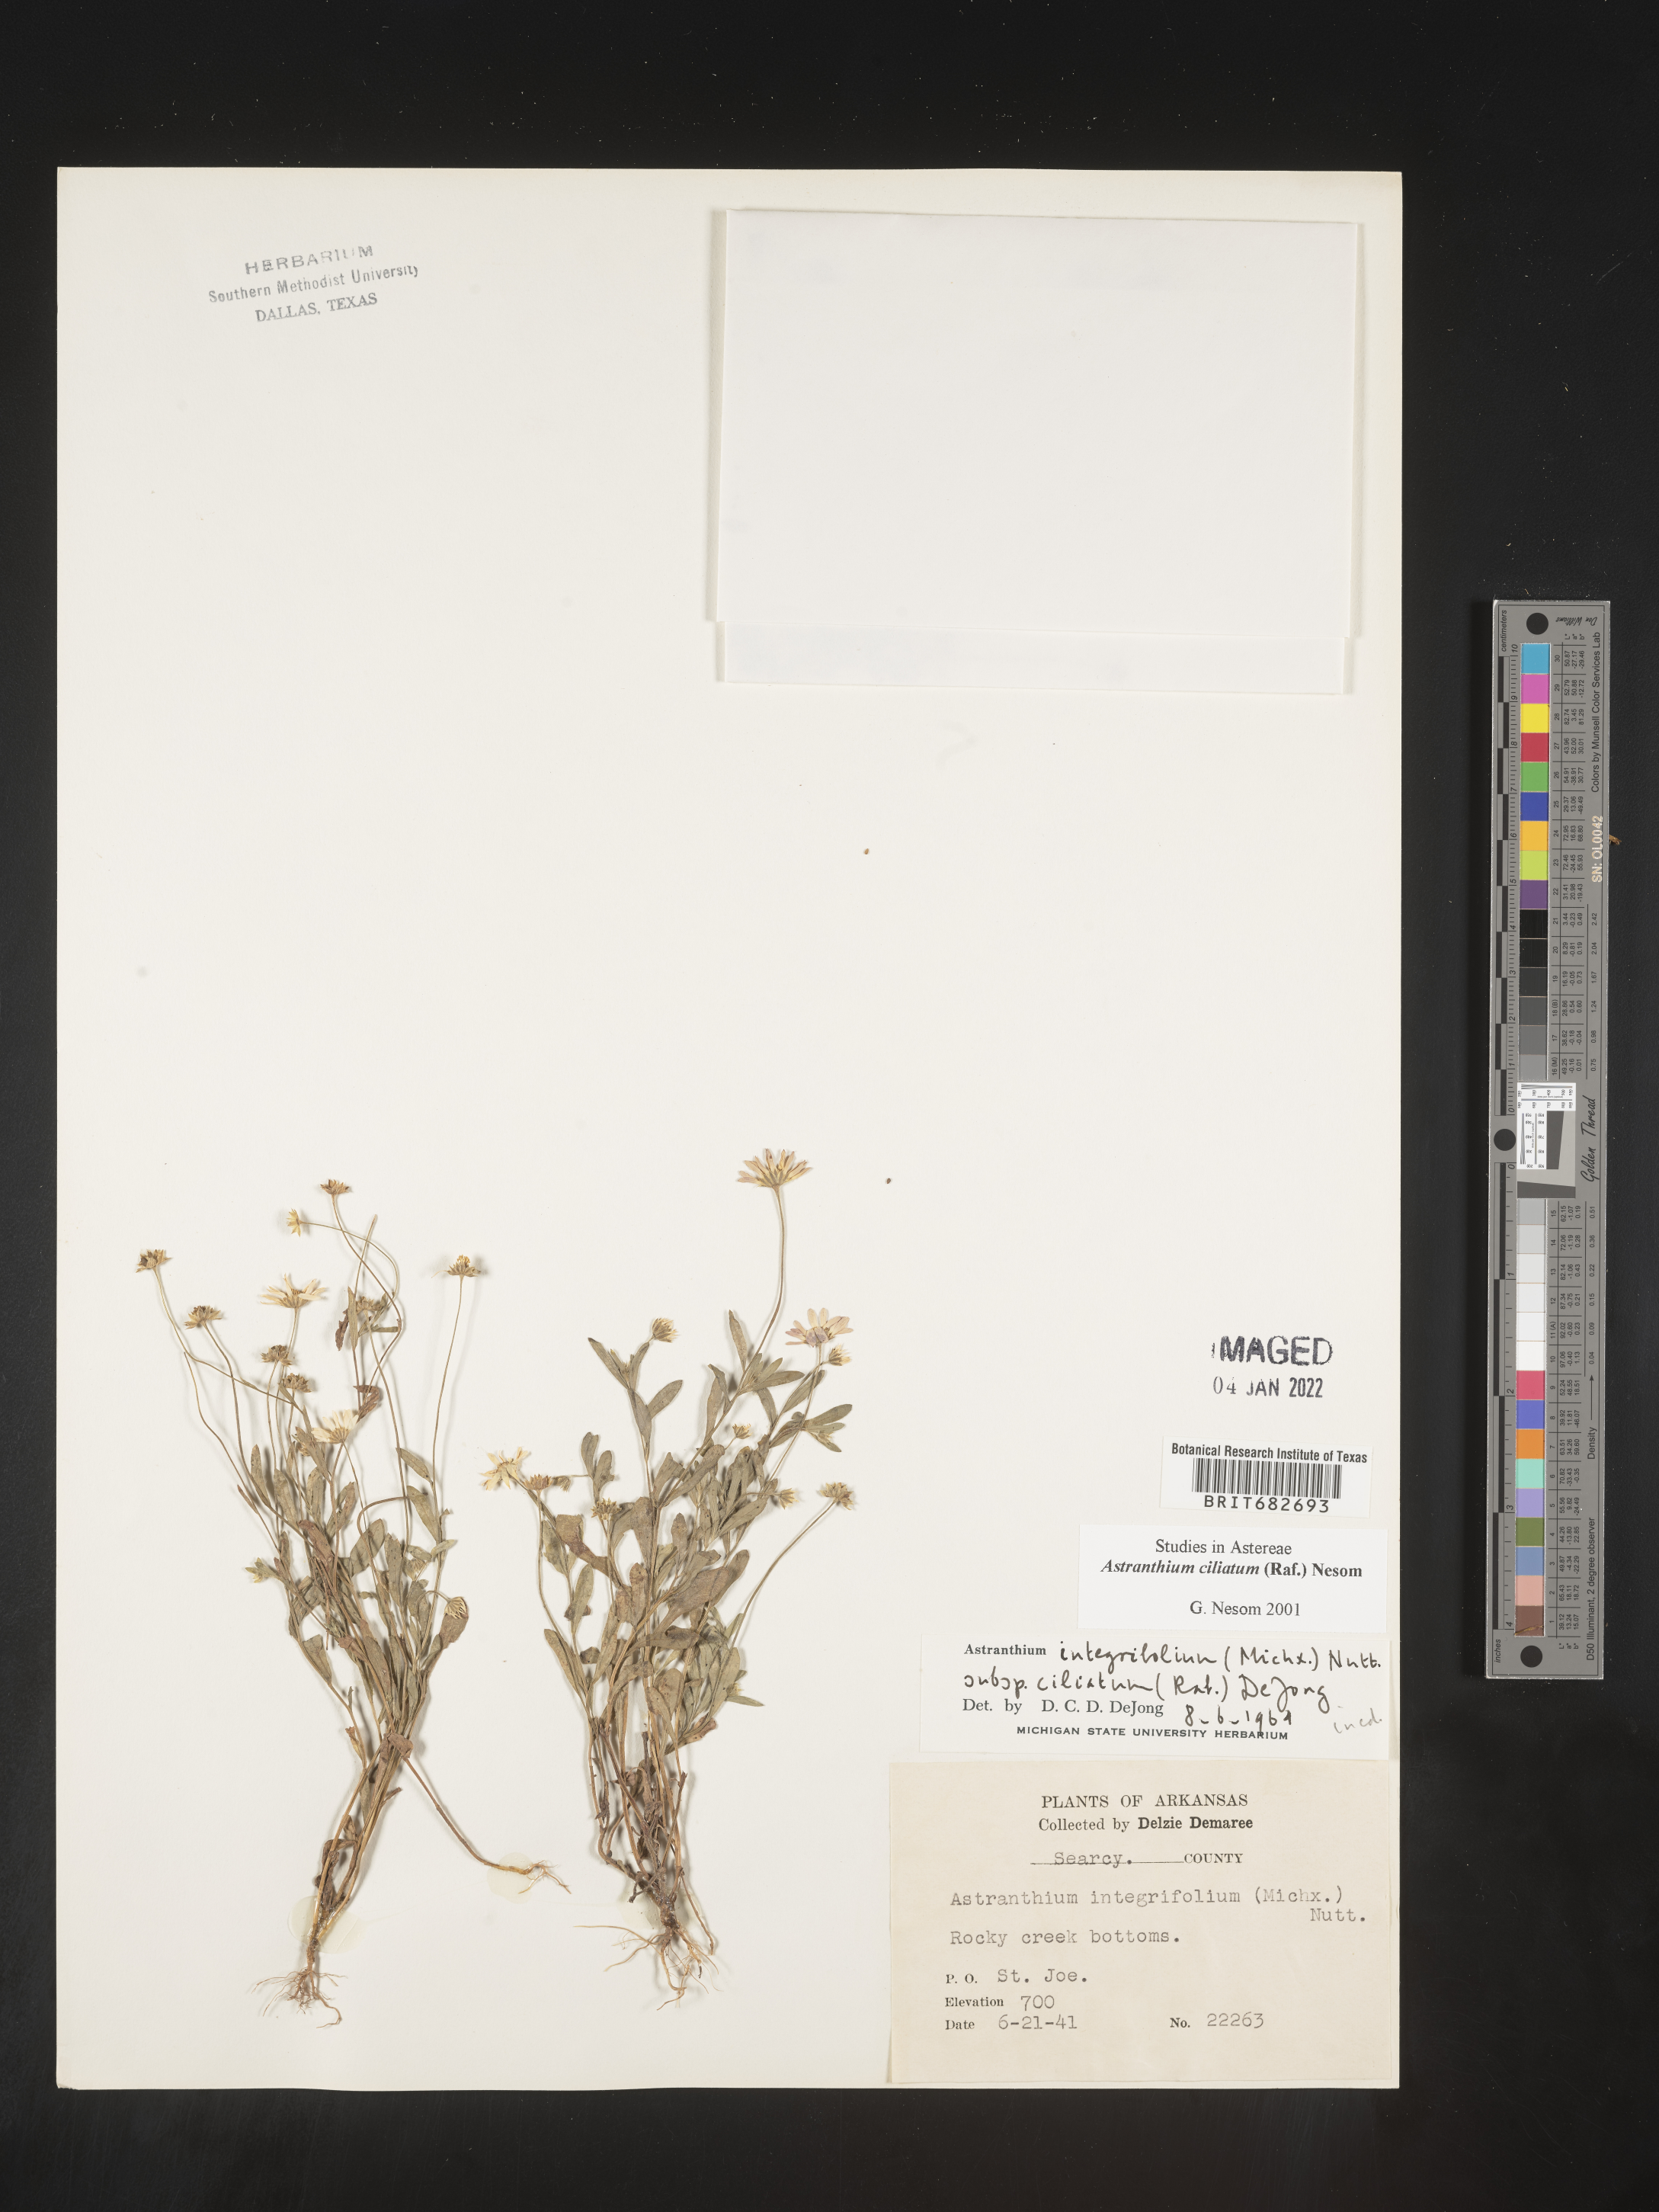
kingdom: Plantae
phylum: Tracheophyta
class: Magnoliopsida
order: Asterales
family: Asteraceae
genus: Astranthium
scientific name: Astranthium ciliatum
